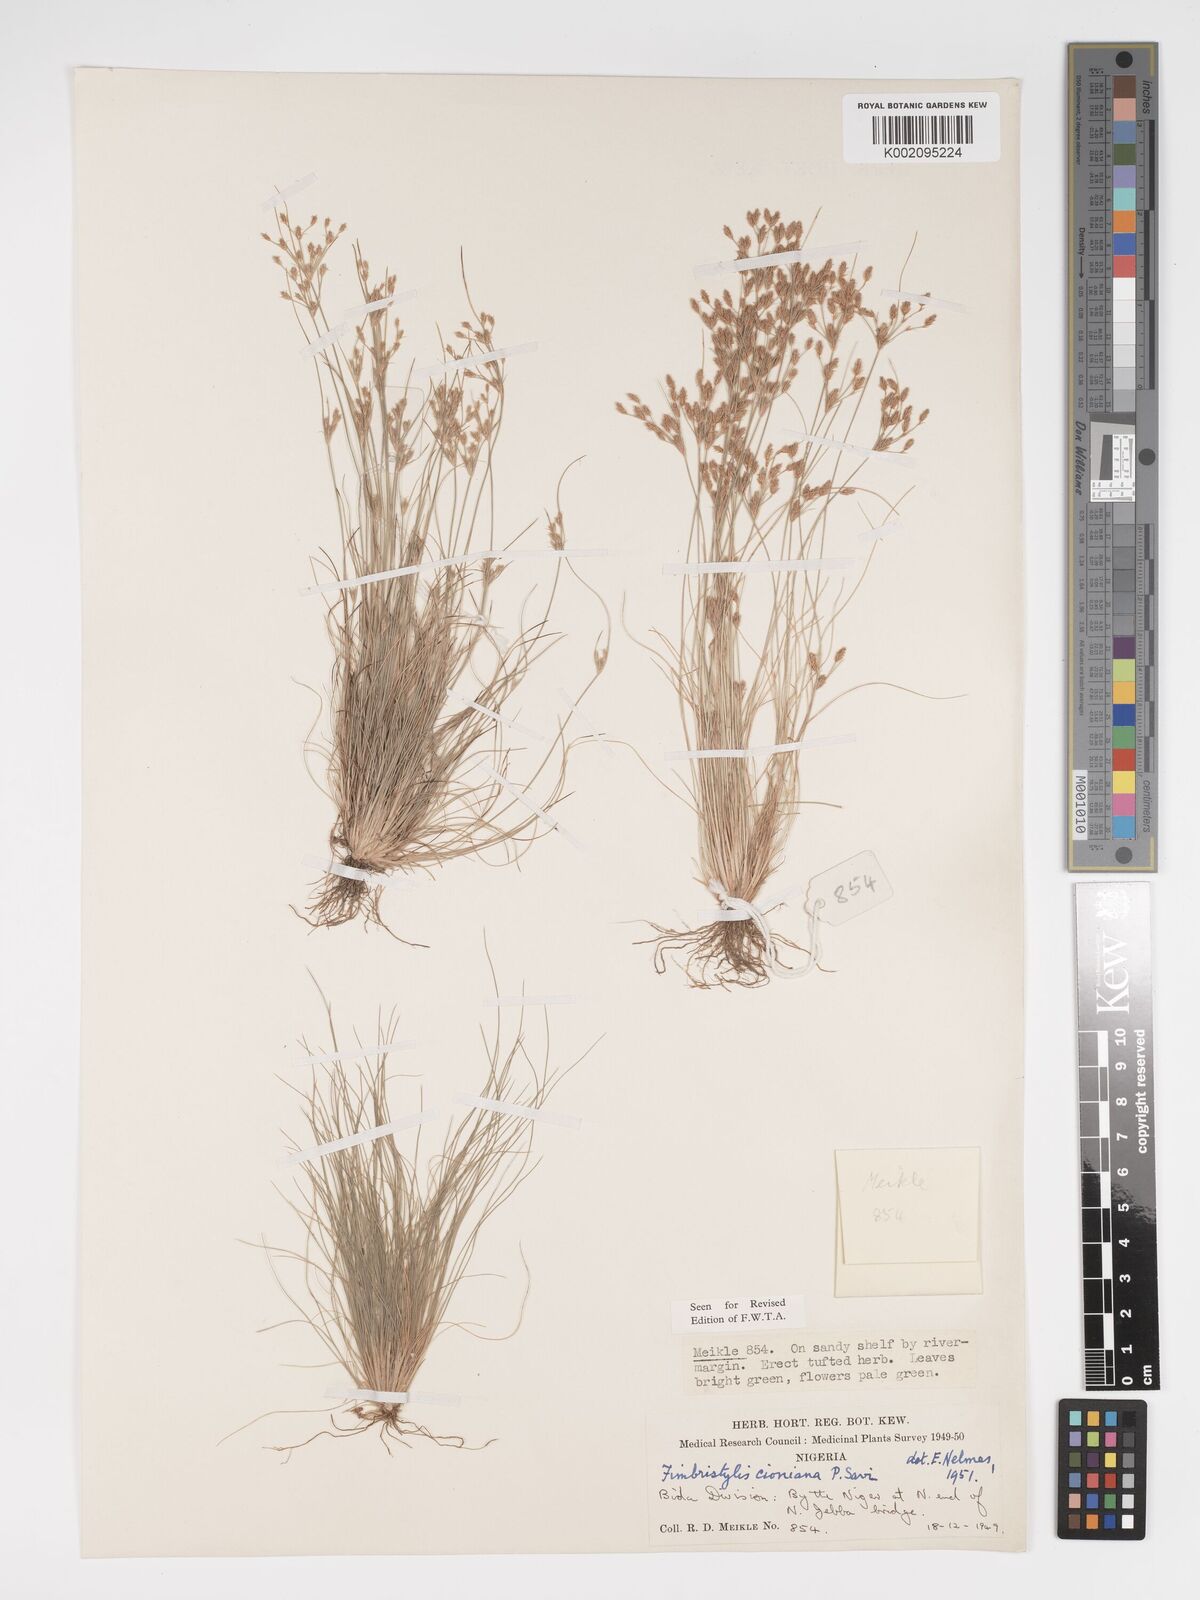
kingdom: Plantae
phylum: Tracheophyta
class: Liliopsida
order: Poales
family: Cyperaceae
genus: Bulbostylis
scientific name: Bulbostylis cioniana
